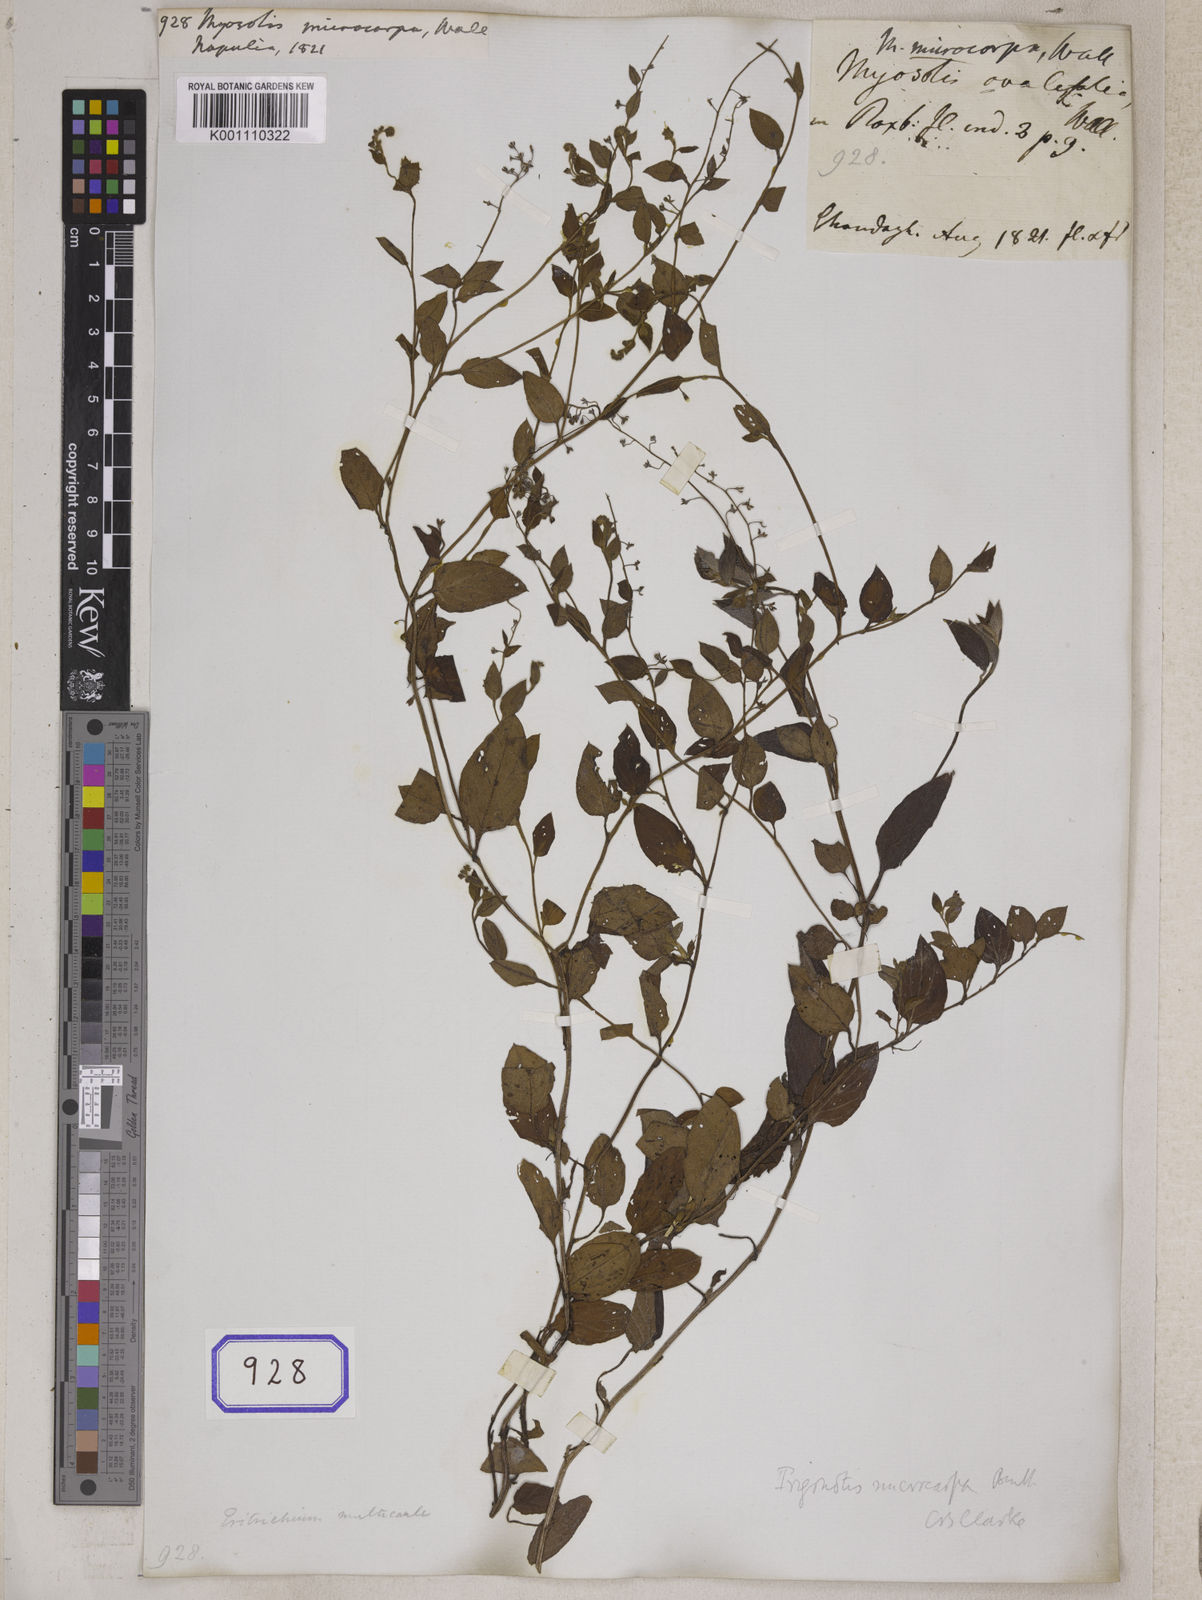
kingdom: Plantae
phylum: Tracheophyta
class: Magnoliopsida
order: Boraginales
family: Boraginaceae
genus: Trigonotis
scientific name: Trigonotis microcarpa
